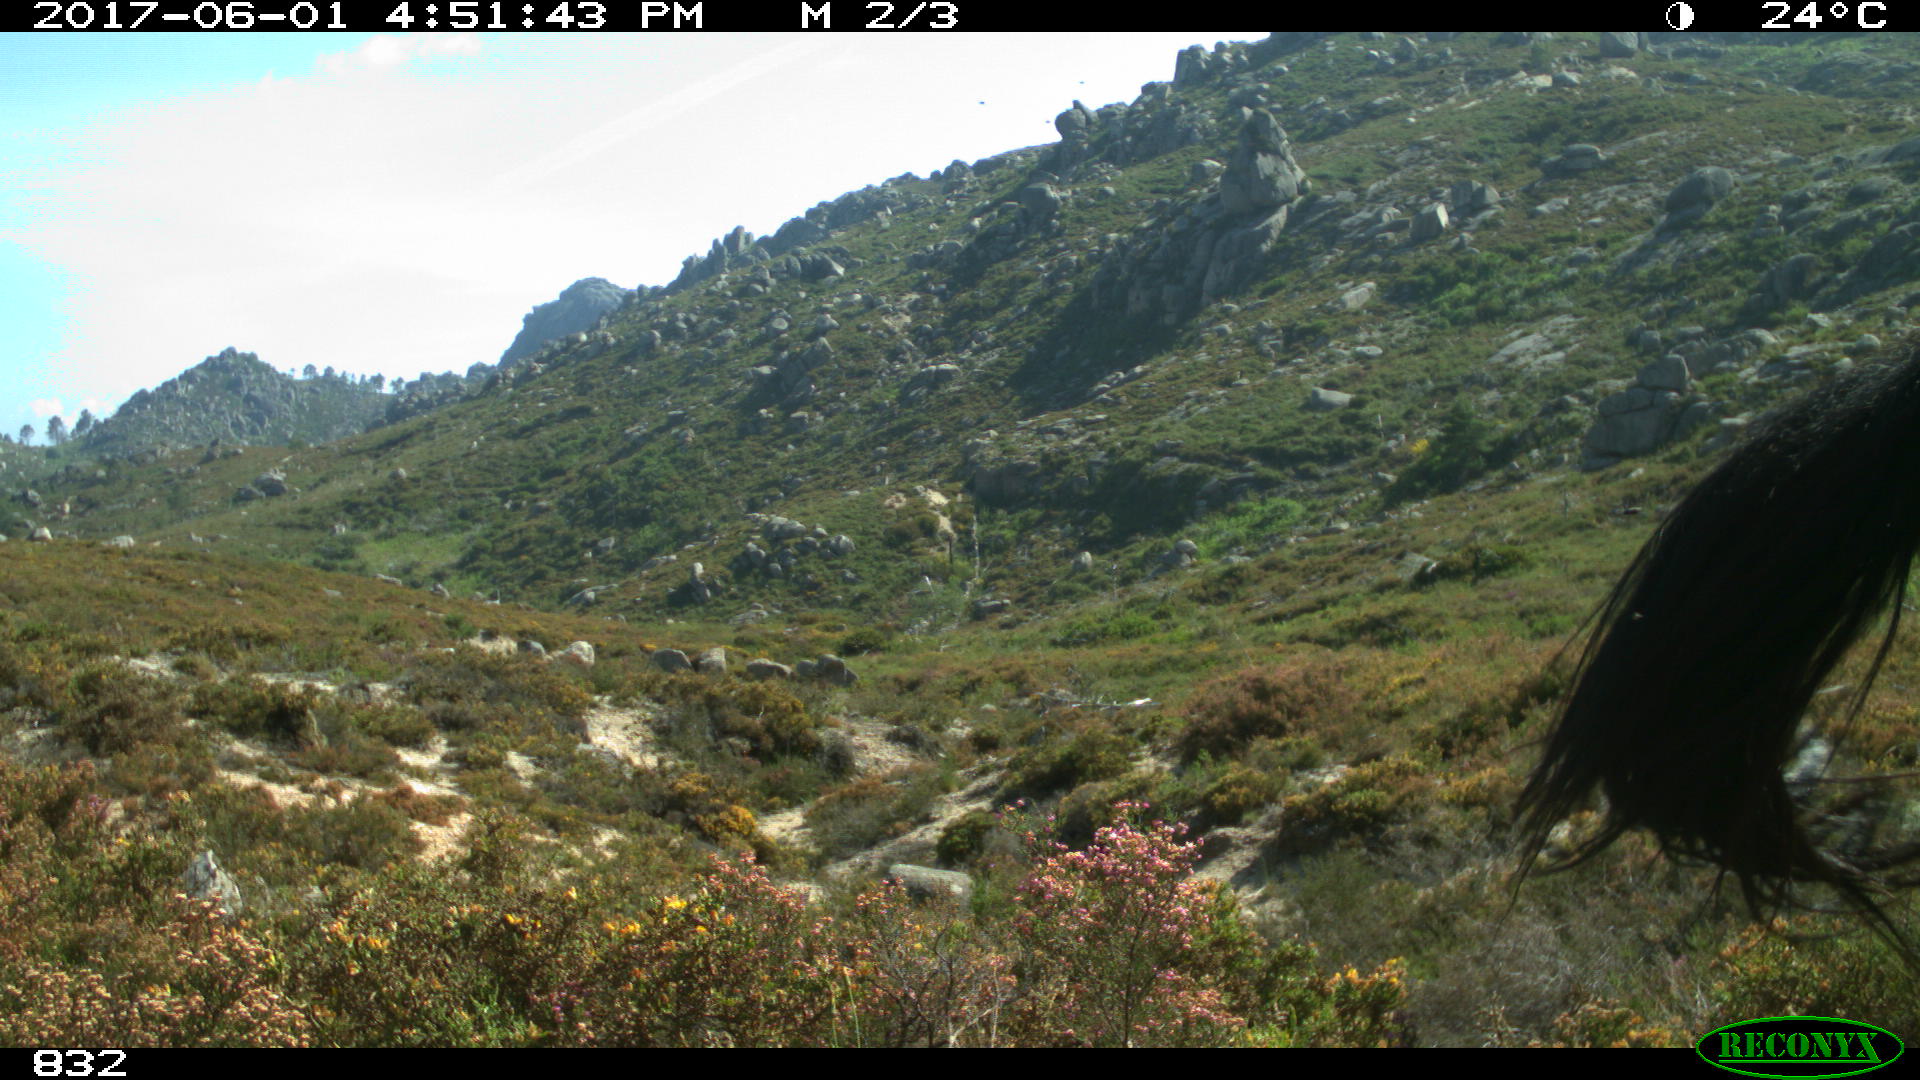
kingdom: Animalia
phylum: Chordata
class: Mammalia
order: Perissodactyla
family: Equidae
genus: Equus
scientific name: Equus caballus
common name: Horse
